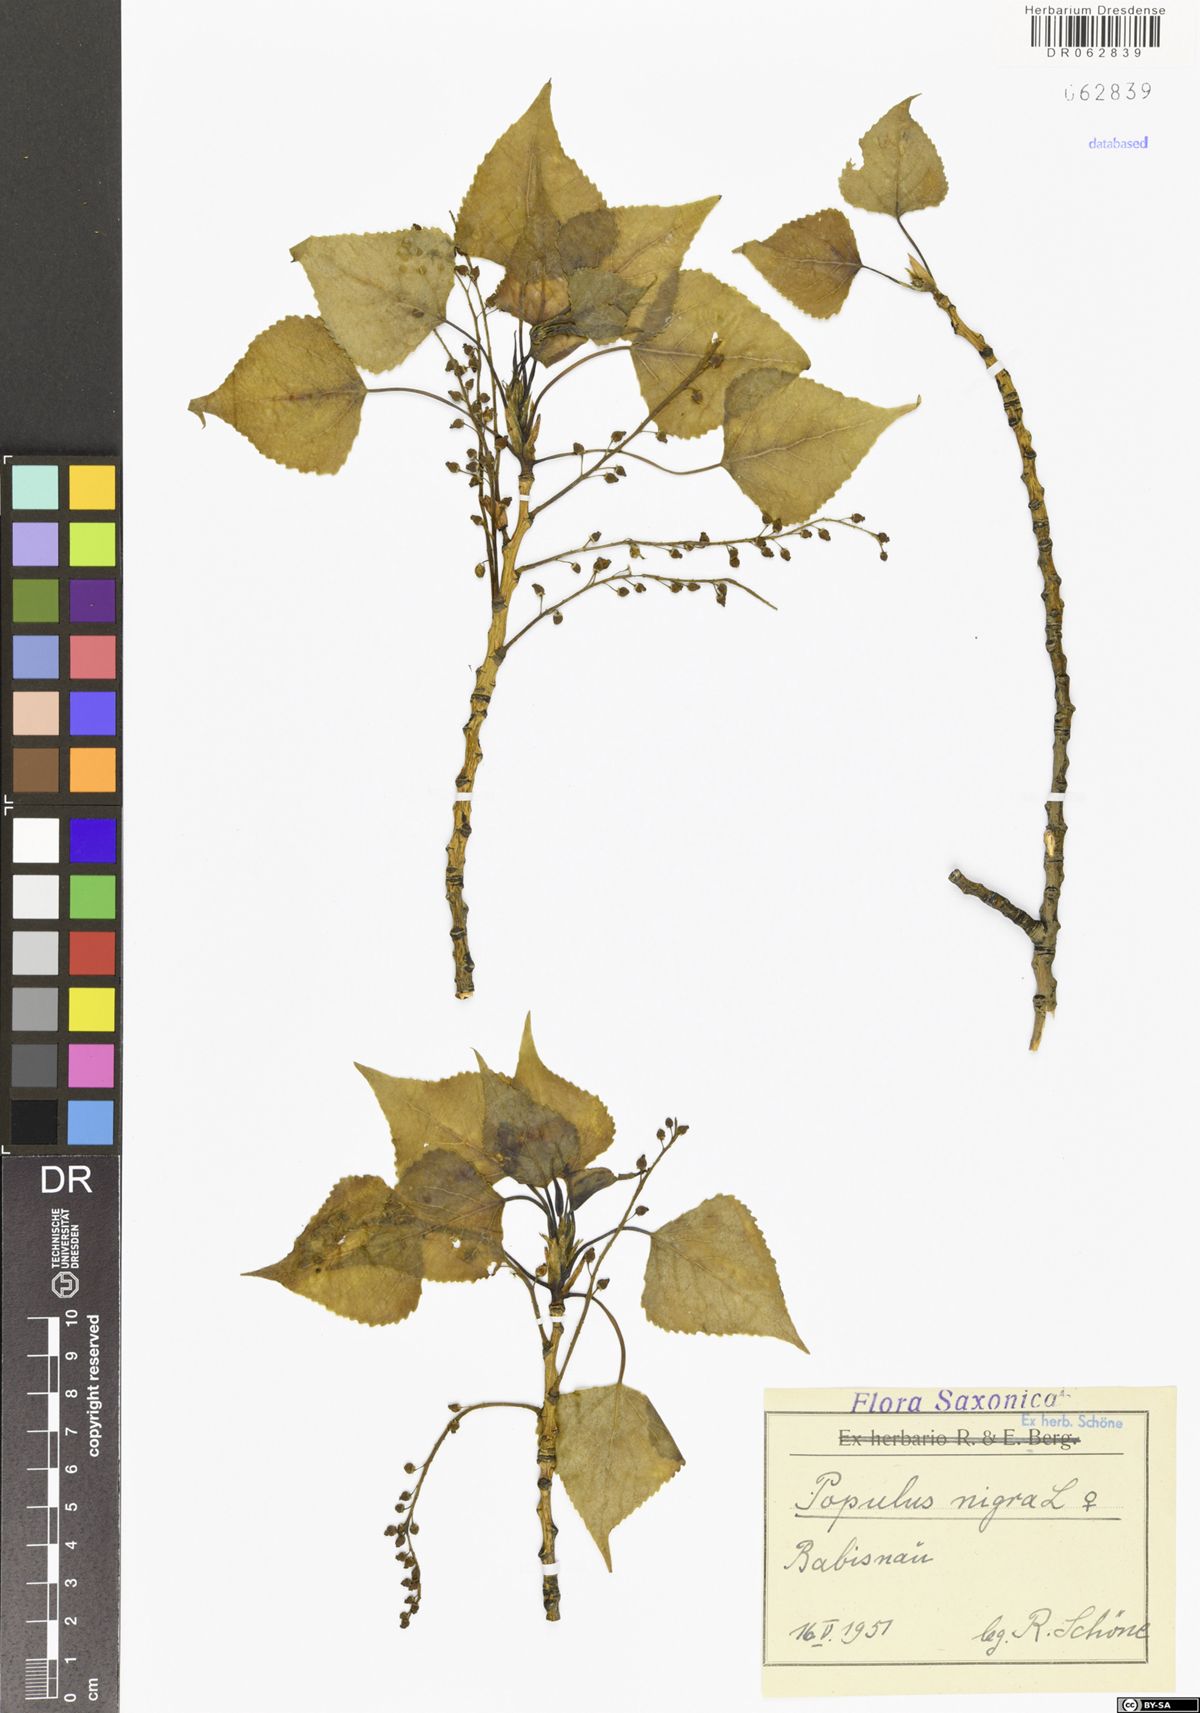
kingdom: Plantae
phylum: Tracheophyta
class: Magnoliopsida
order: Malpighiales
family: Salicaceae
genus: Populus
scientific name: Populus nigra
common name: Black poplar
